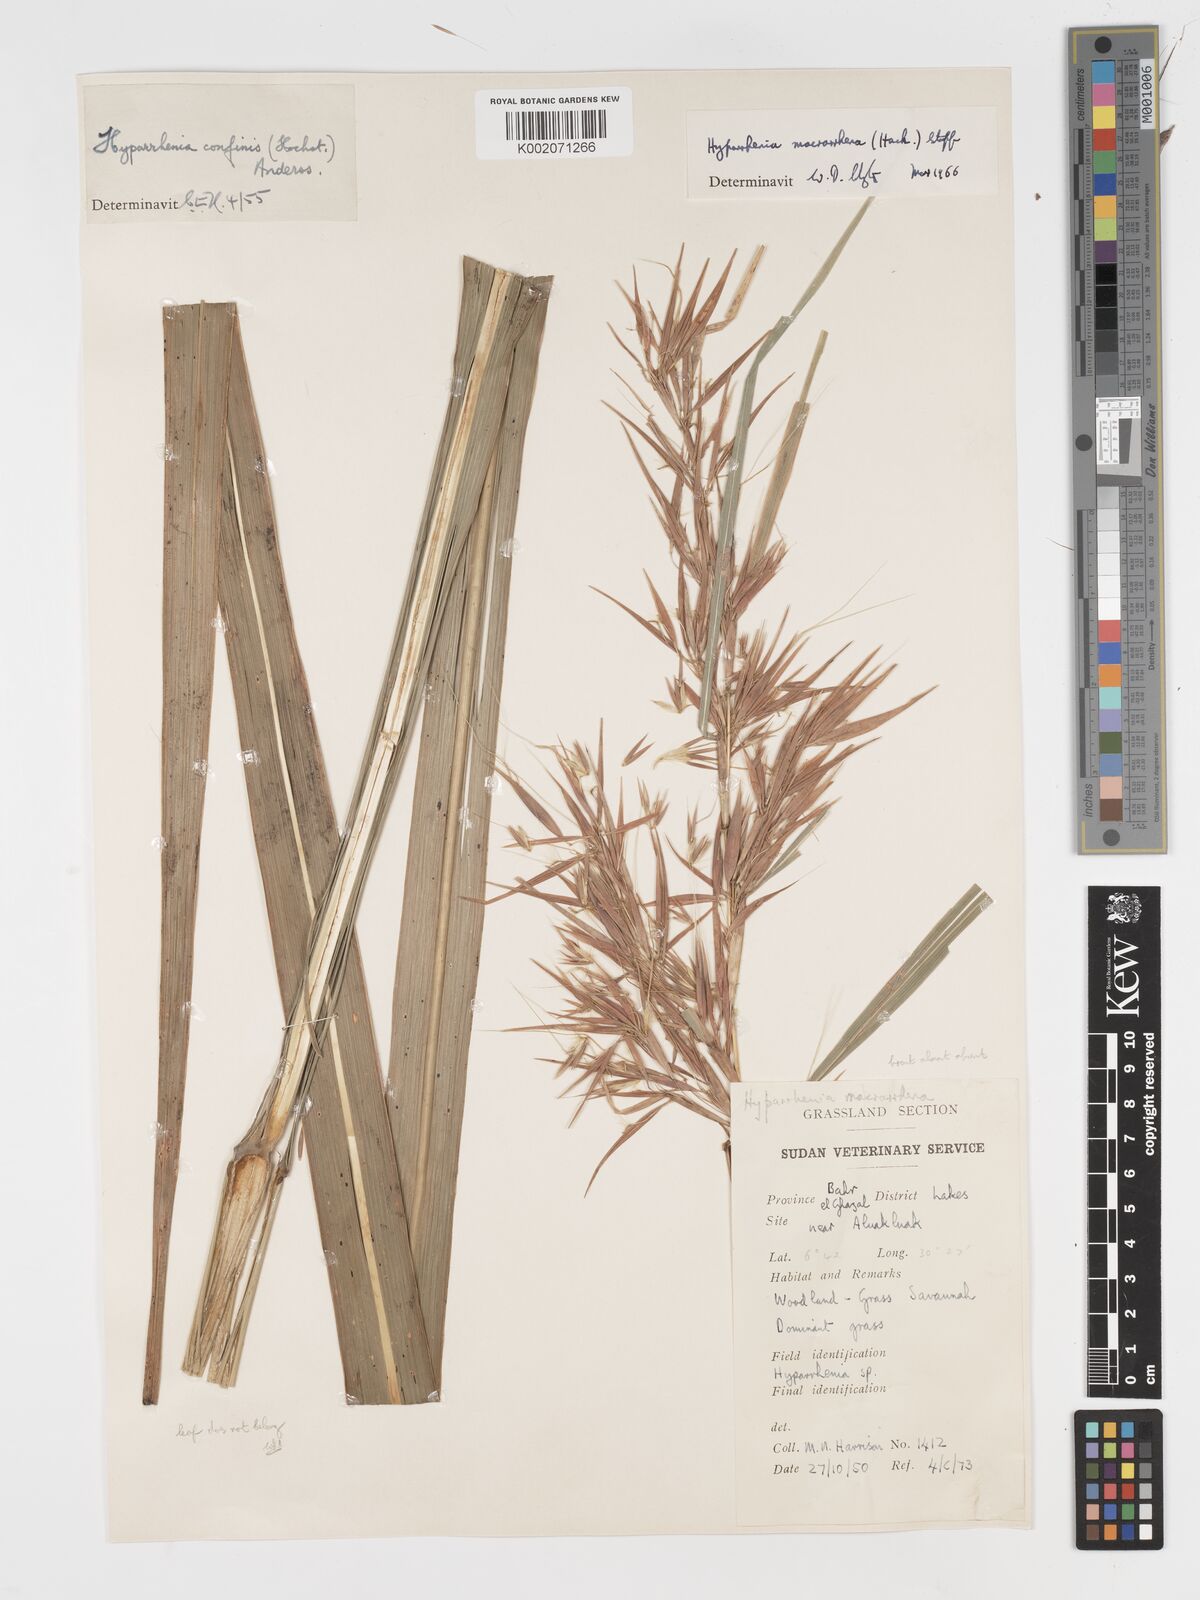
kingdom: Plantae
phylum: Tracheophyta
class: Liliopsida
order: Poales
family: Poaceae
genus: Hyparrhenia
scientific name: Hyparrhenia niariensis
